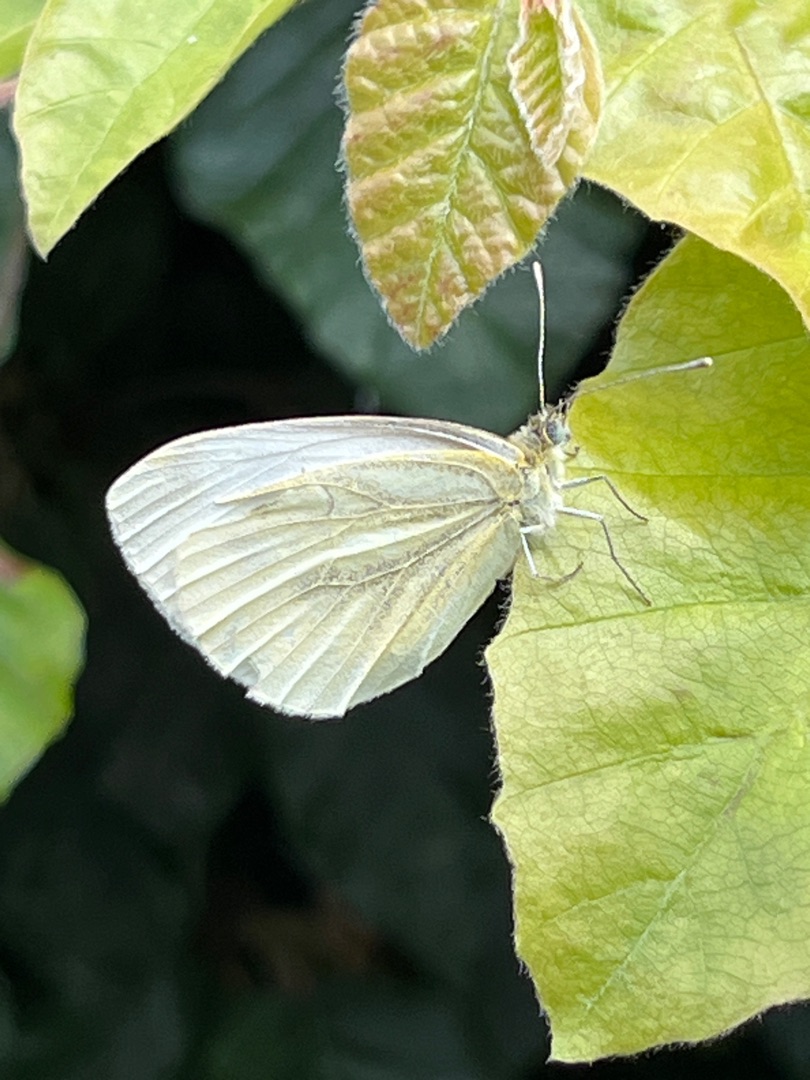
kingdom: Animalia
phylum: Arthropoda
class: Insecta
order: Lepidoptera
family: Pieridae
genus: Pieris
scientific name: Pieris napi
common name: Grønåret kålsommerfugl
